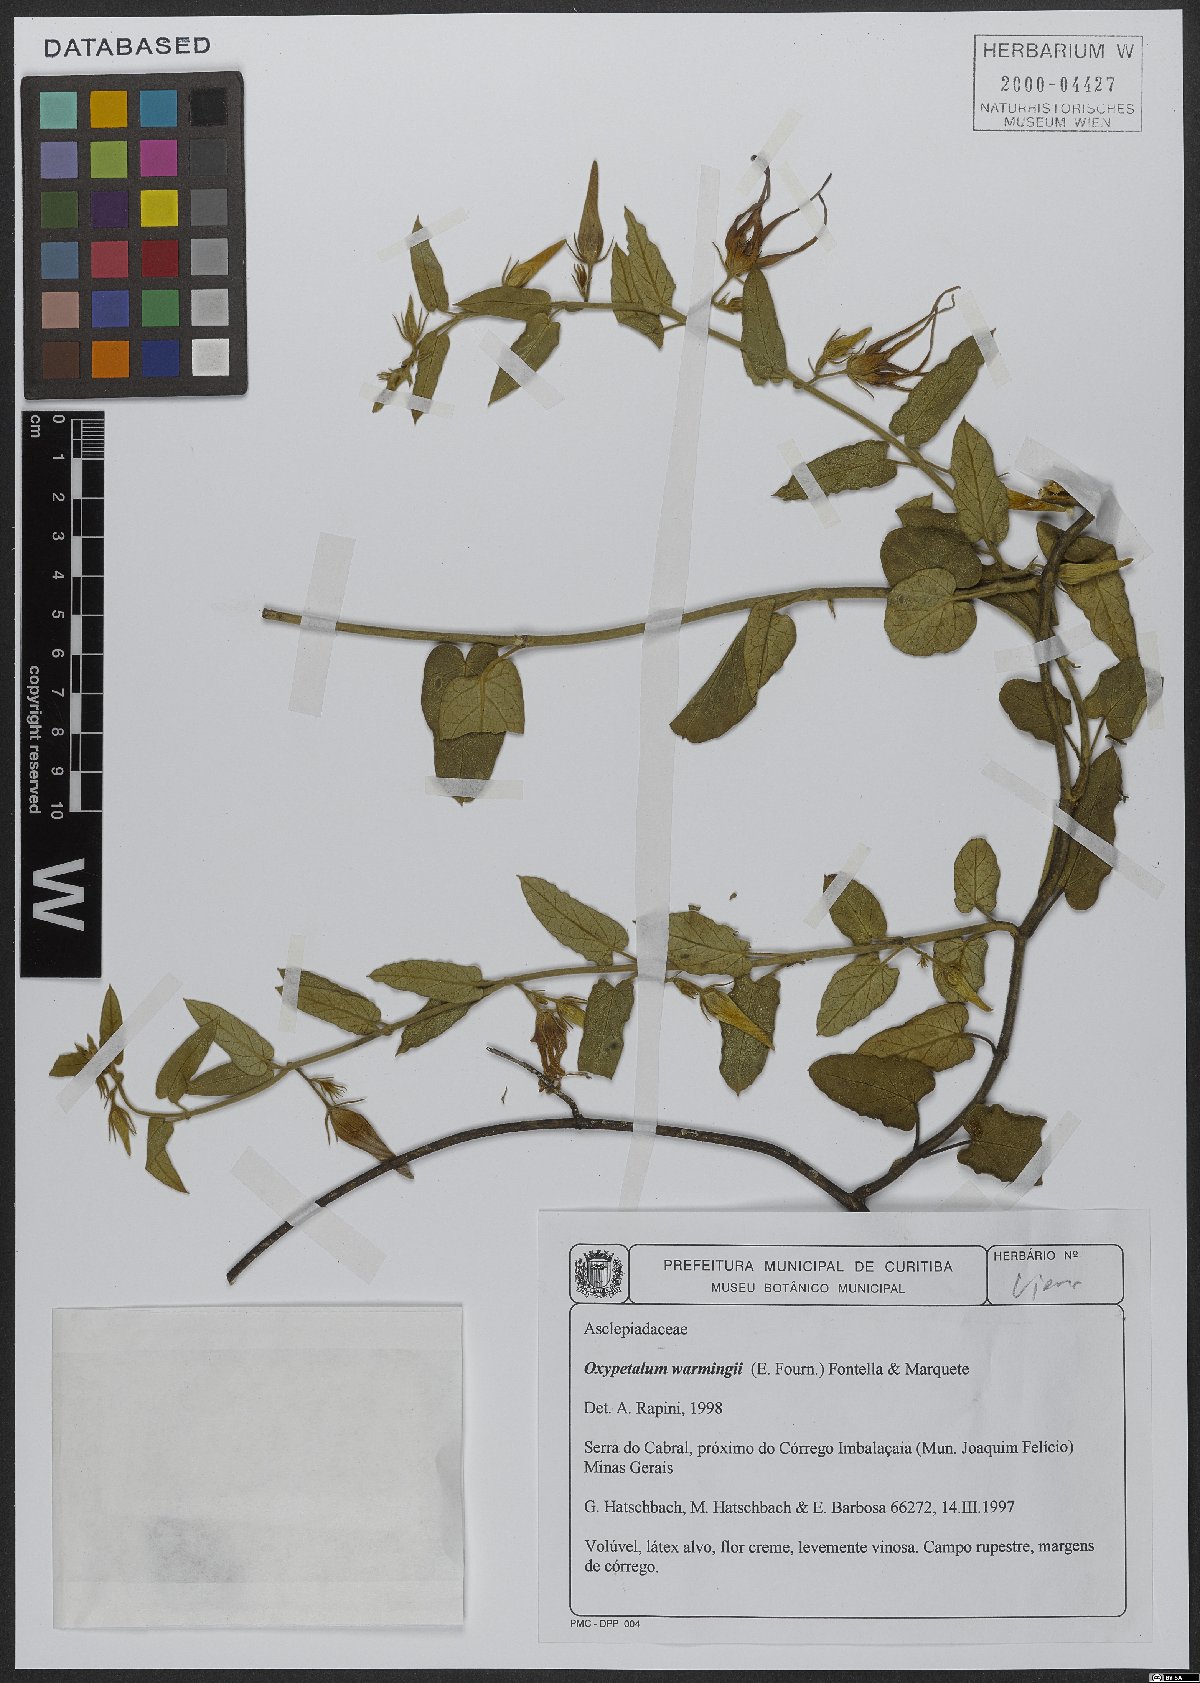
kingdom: Plantae
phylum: Tracheophyta
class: Magnoliopsida
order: Gentianales
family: Apocynaceae
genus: Oxypetalum
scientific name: Oxypetalum warmingii
